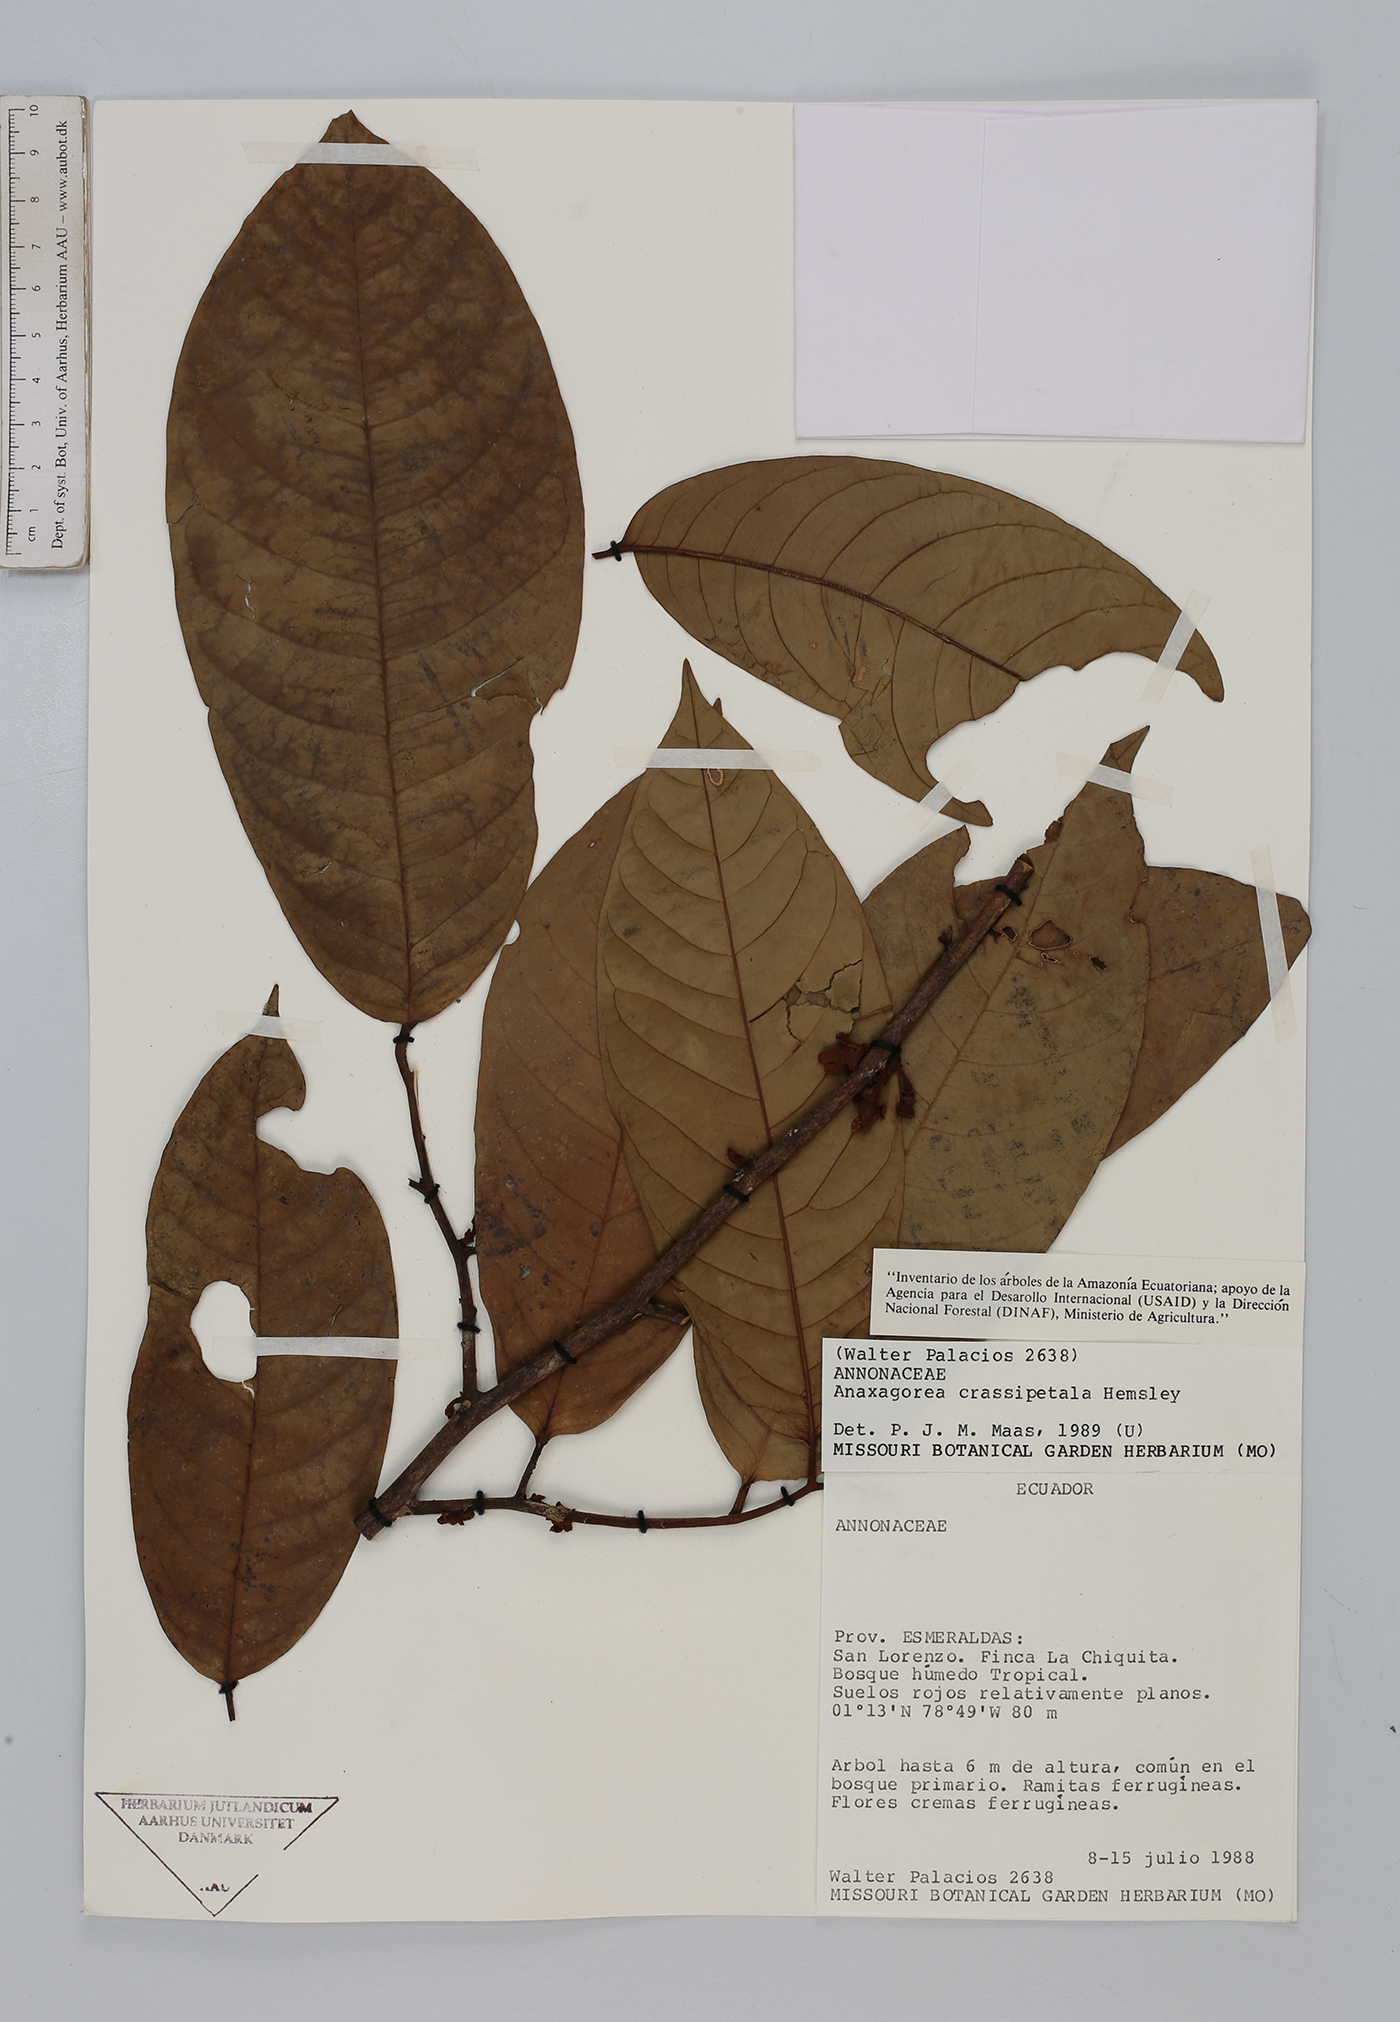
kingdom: Plantae
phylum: Tracheophyta
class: Magnoliopsida
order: Magnoliales
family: Annonaceae
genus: Anaxagorea
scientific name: Anaxagorea crassipetala
